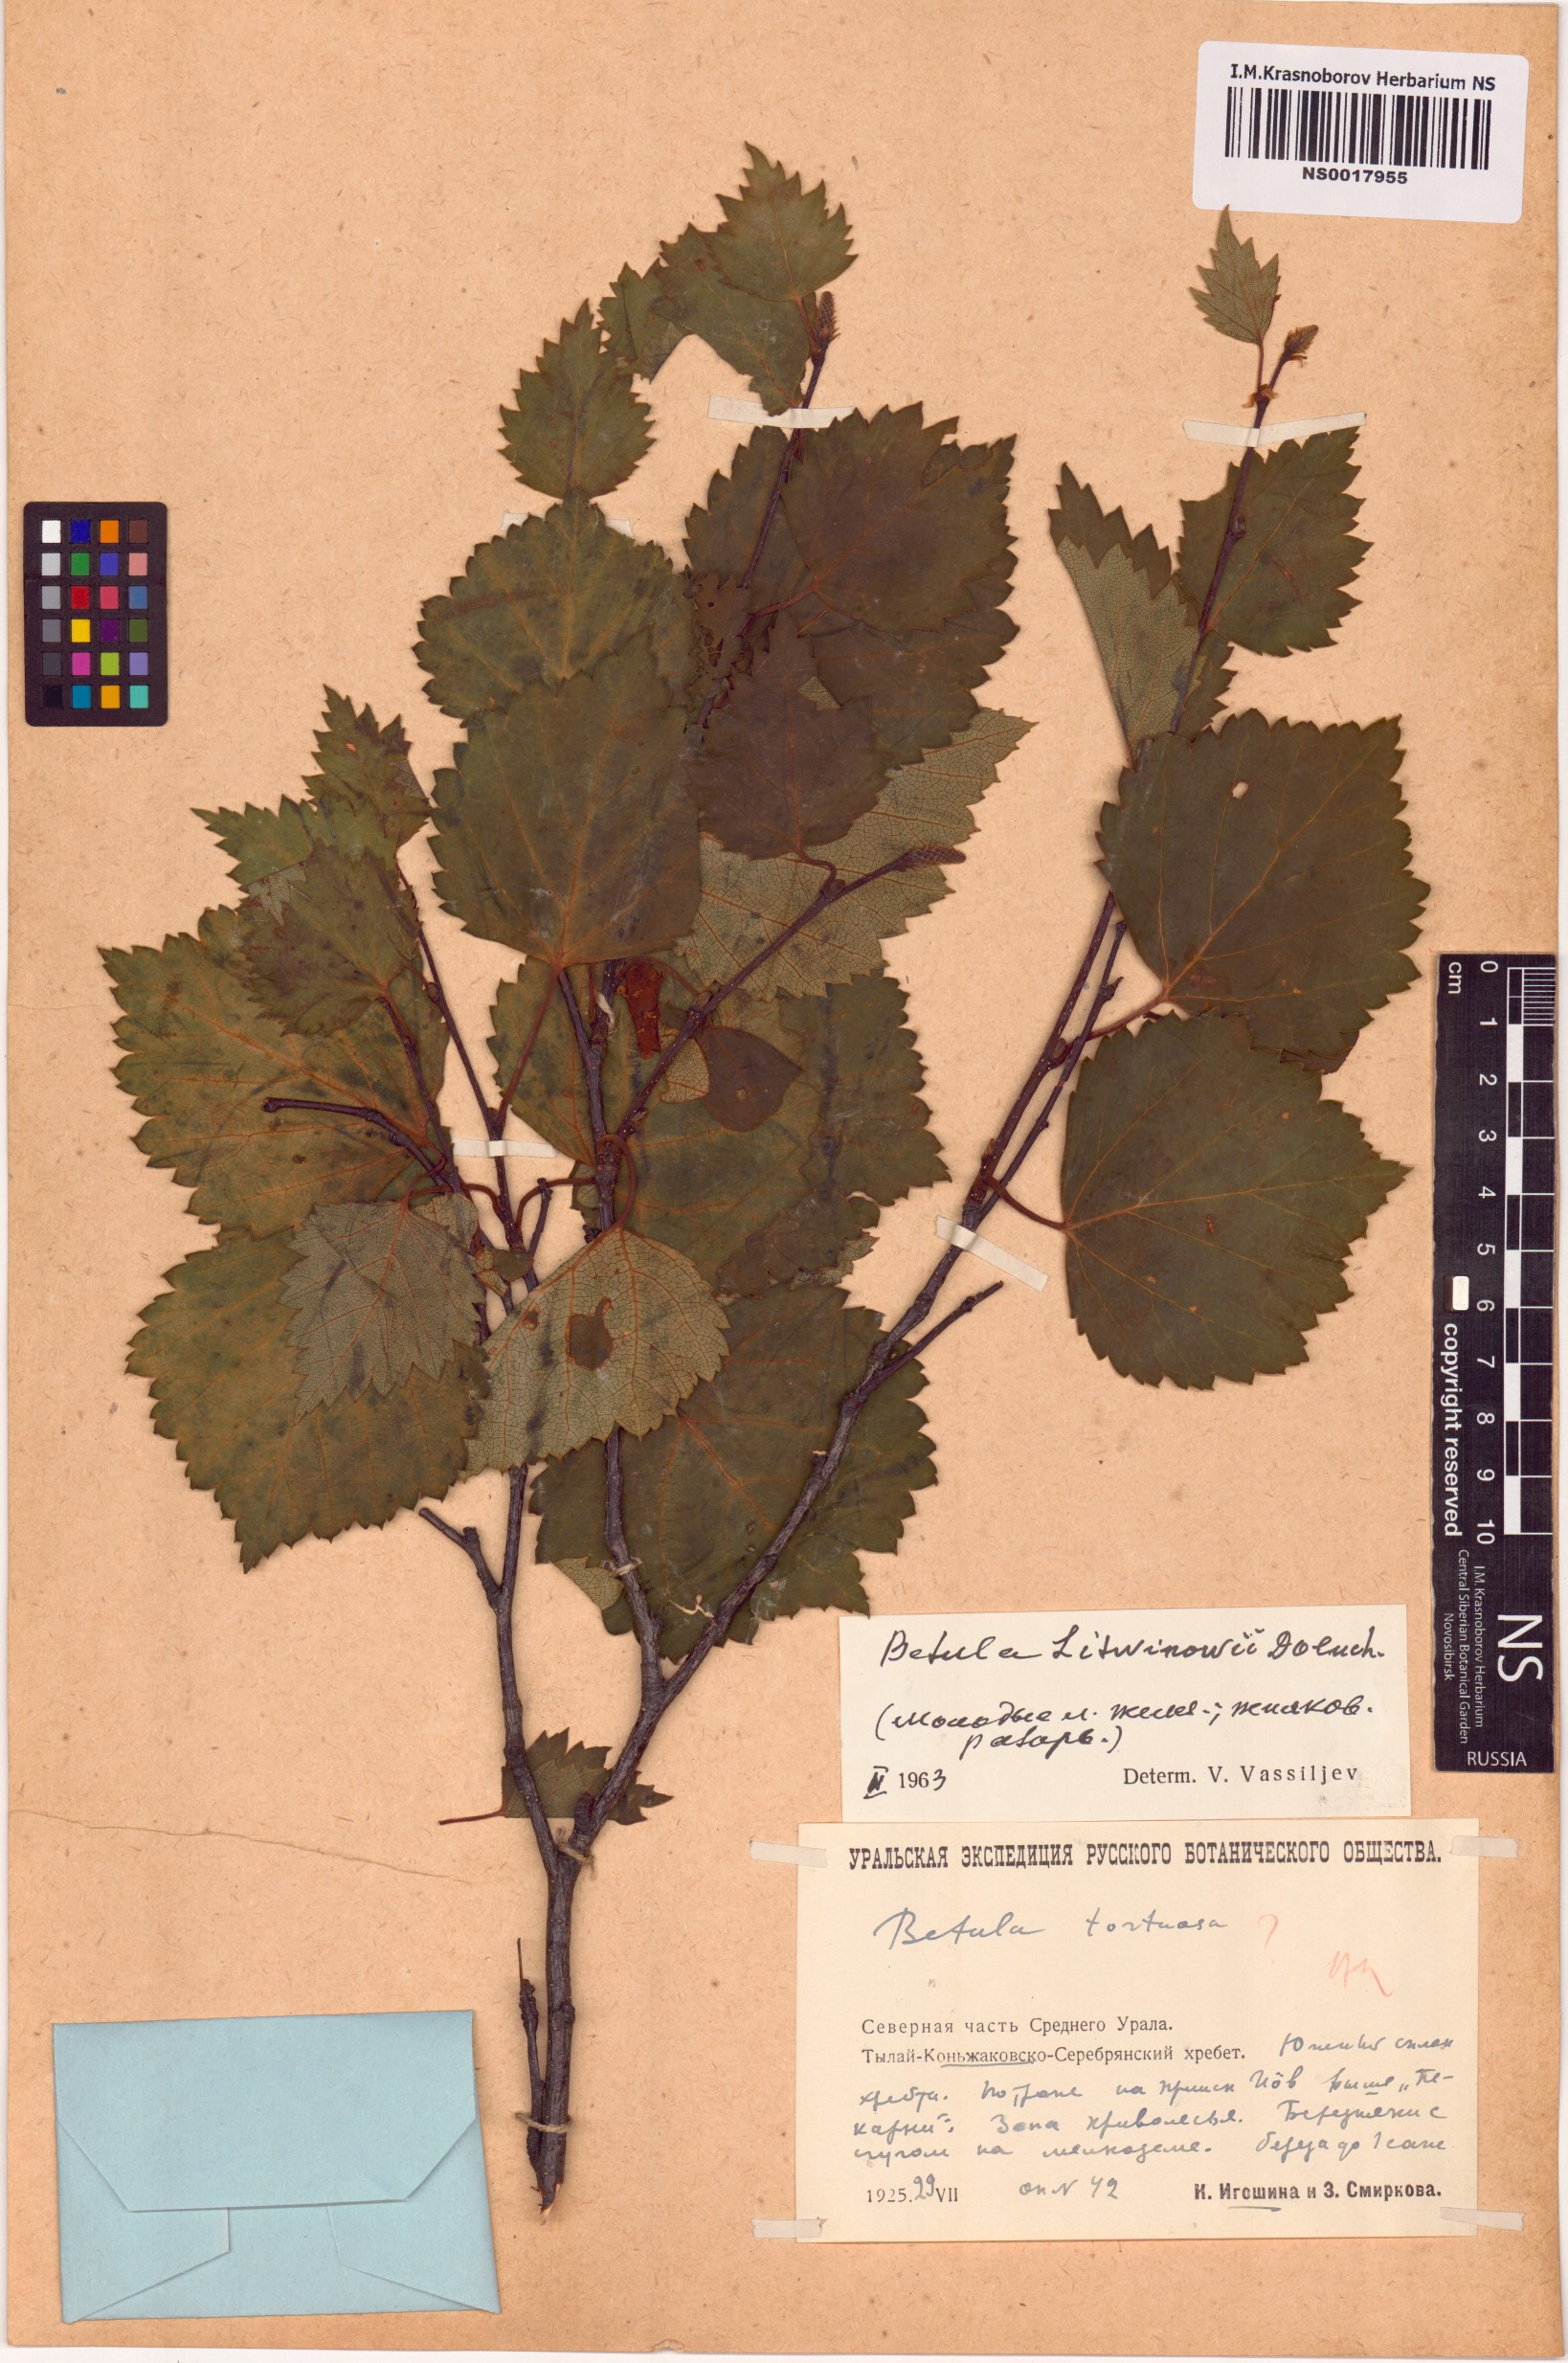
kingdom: Plantae
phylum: Tracheophyta
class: Magnoliopsida
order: Fagales
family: Betulaceae
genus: Betula
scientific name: Betula pubescens
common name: Downy birch
